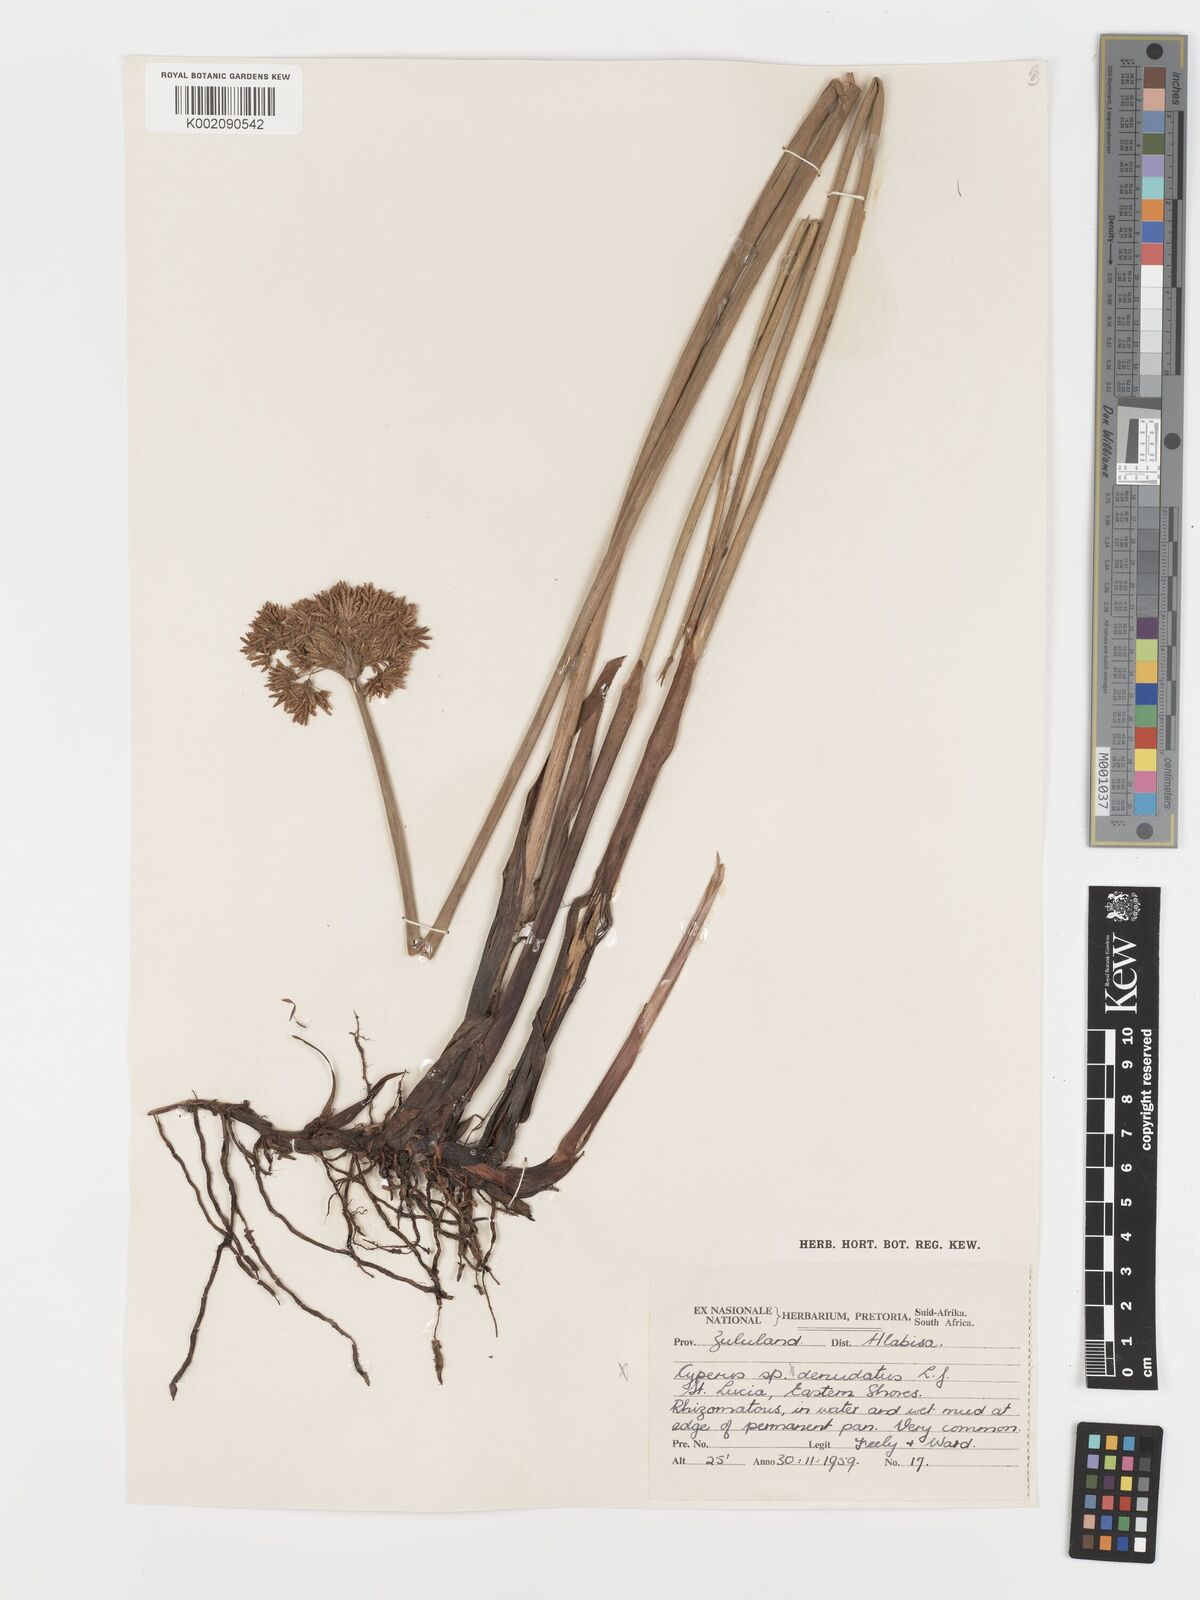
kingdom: Plantae
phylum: Tracheophyta
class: Liliopsida
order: Poales
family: Cyperaceae
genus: Cyperus
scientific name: Cyperus prolifer
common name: Miniature flatsedge
